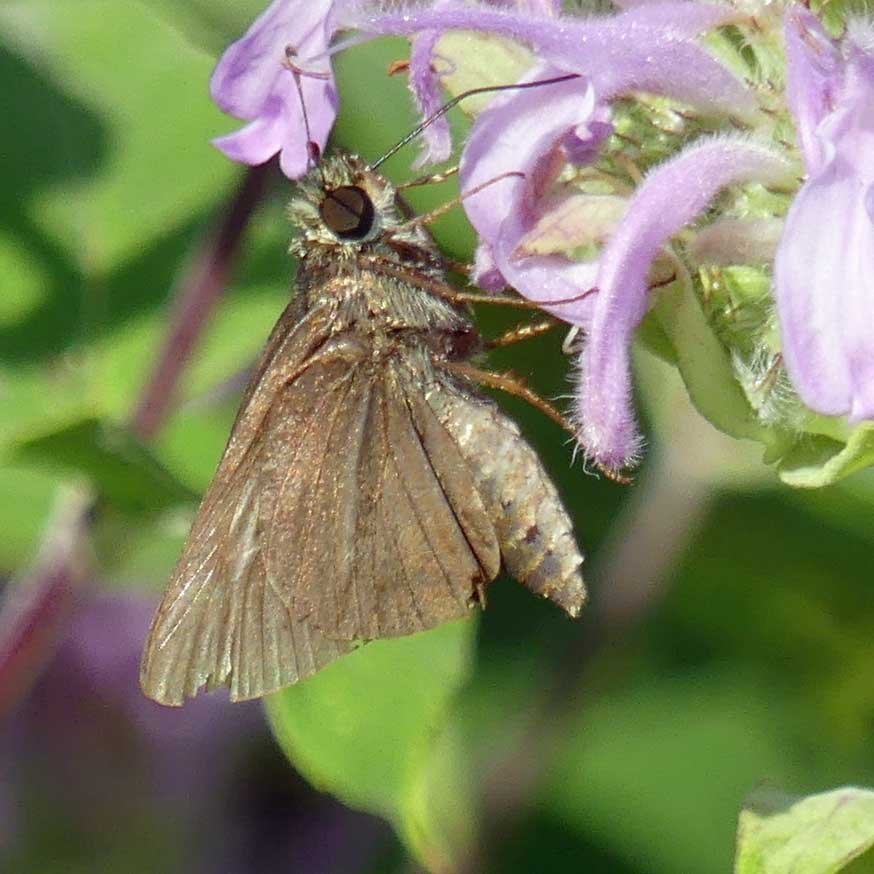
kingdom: Animalia
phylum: Arthropoda
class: Insecta
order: Lepidoptera
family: Hesperiidae
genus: Euphyes
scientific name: Euphyes vestris
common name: Dun Skipper
